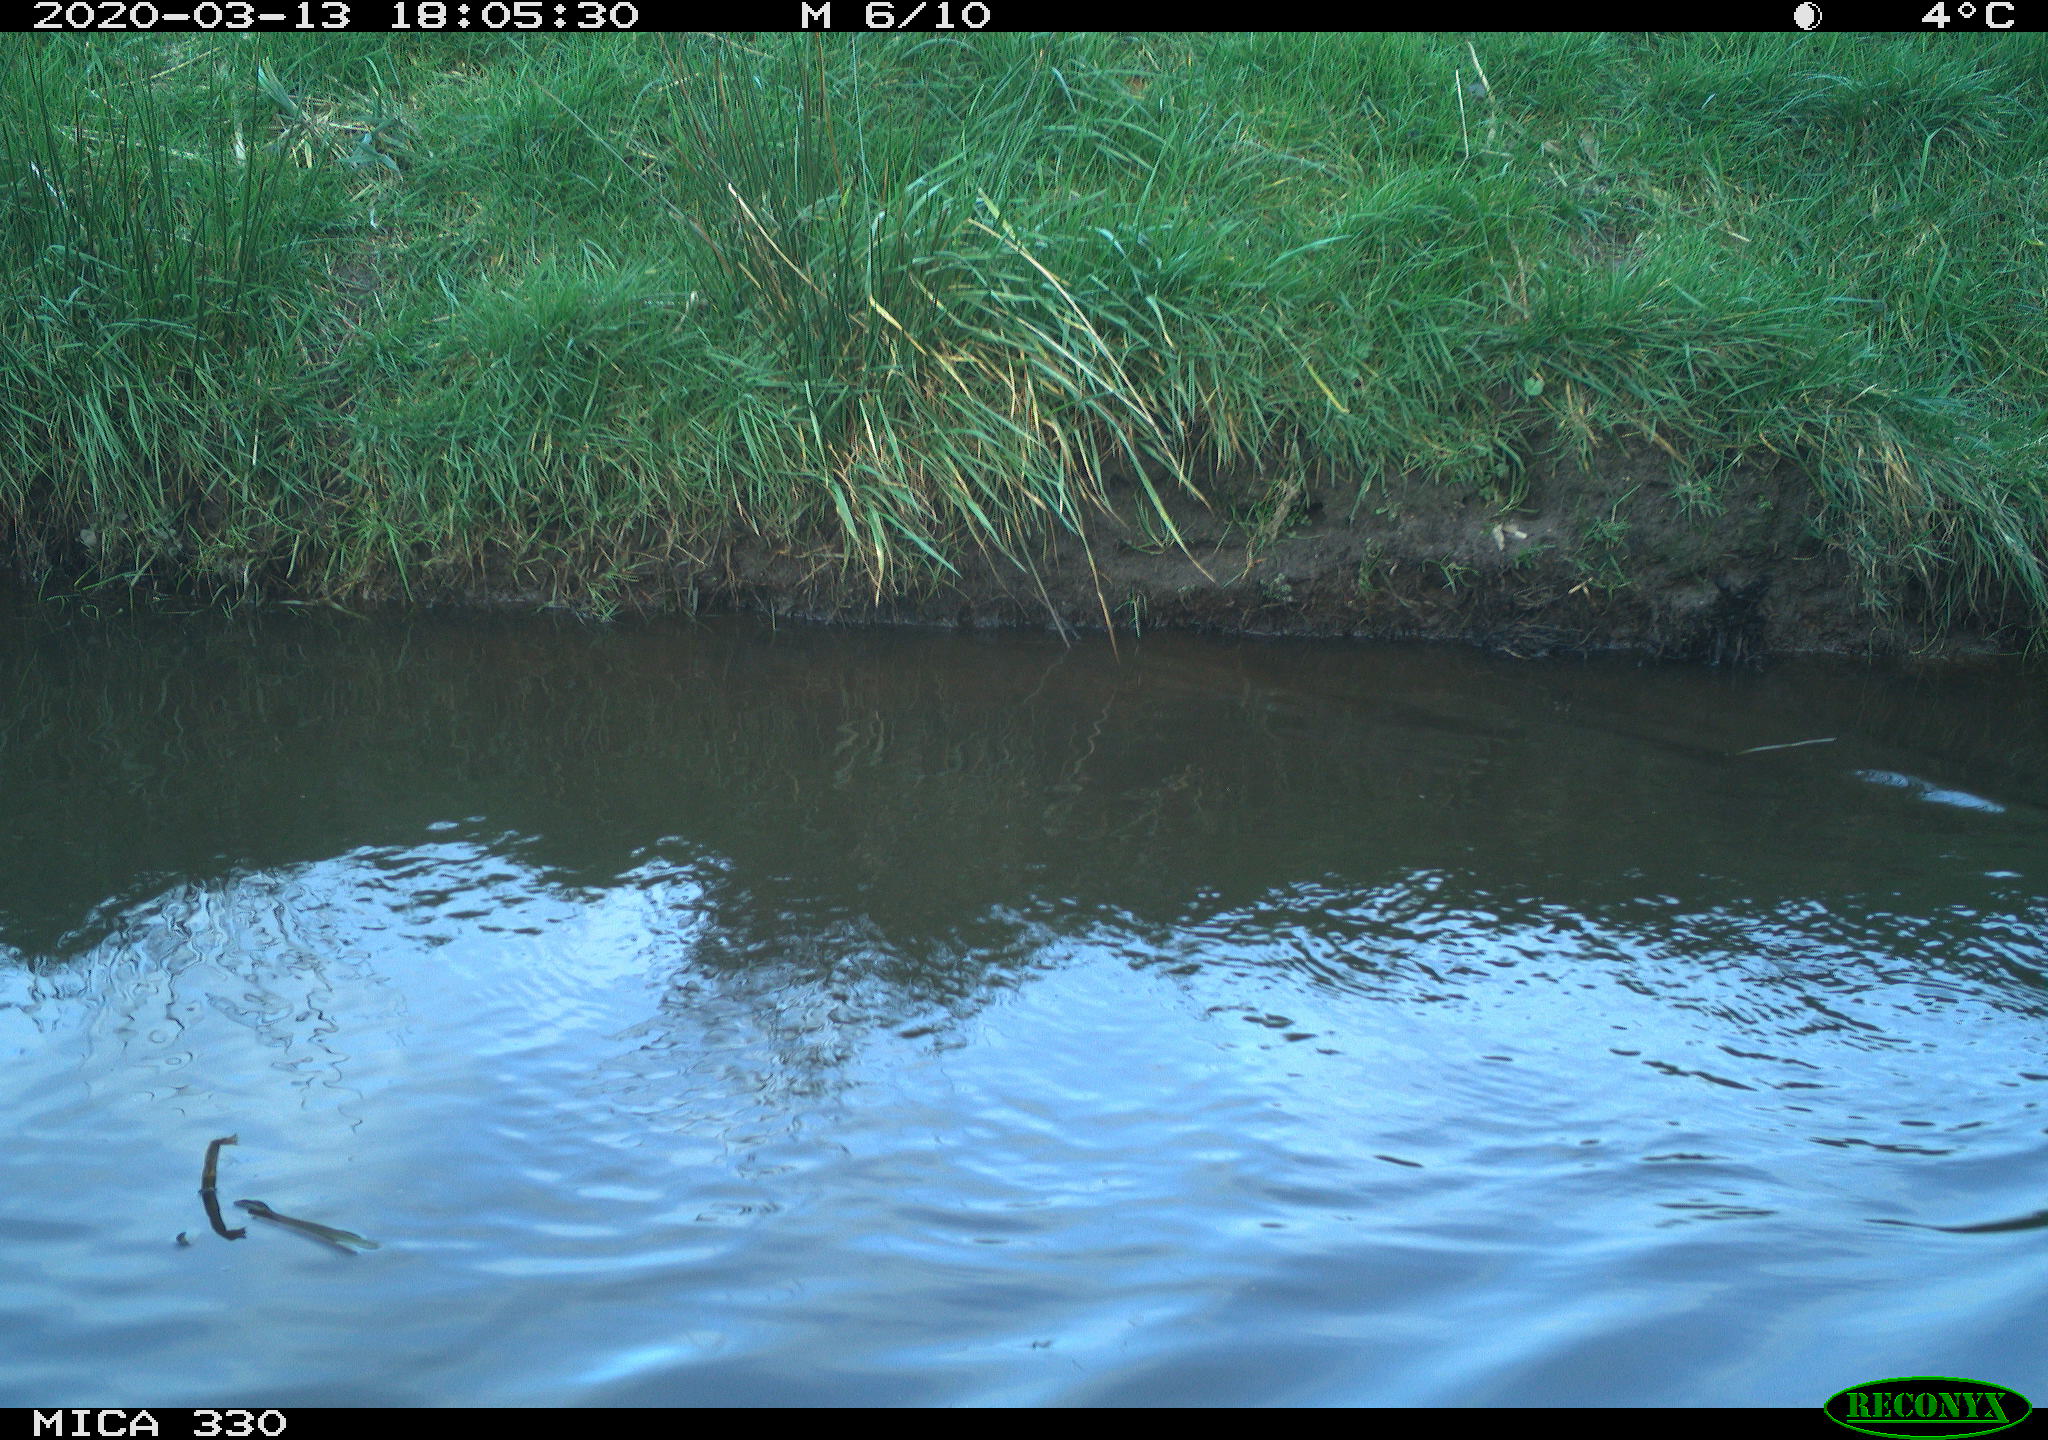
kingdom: Animalia
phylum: Chordata
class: Aves
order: Anseriformes
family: Anatidae
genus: Anas
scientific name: Anas platyrhynchos
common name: Mallard
